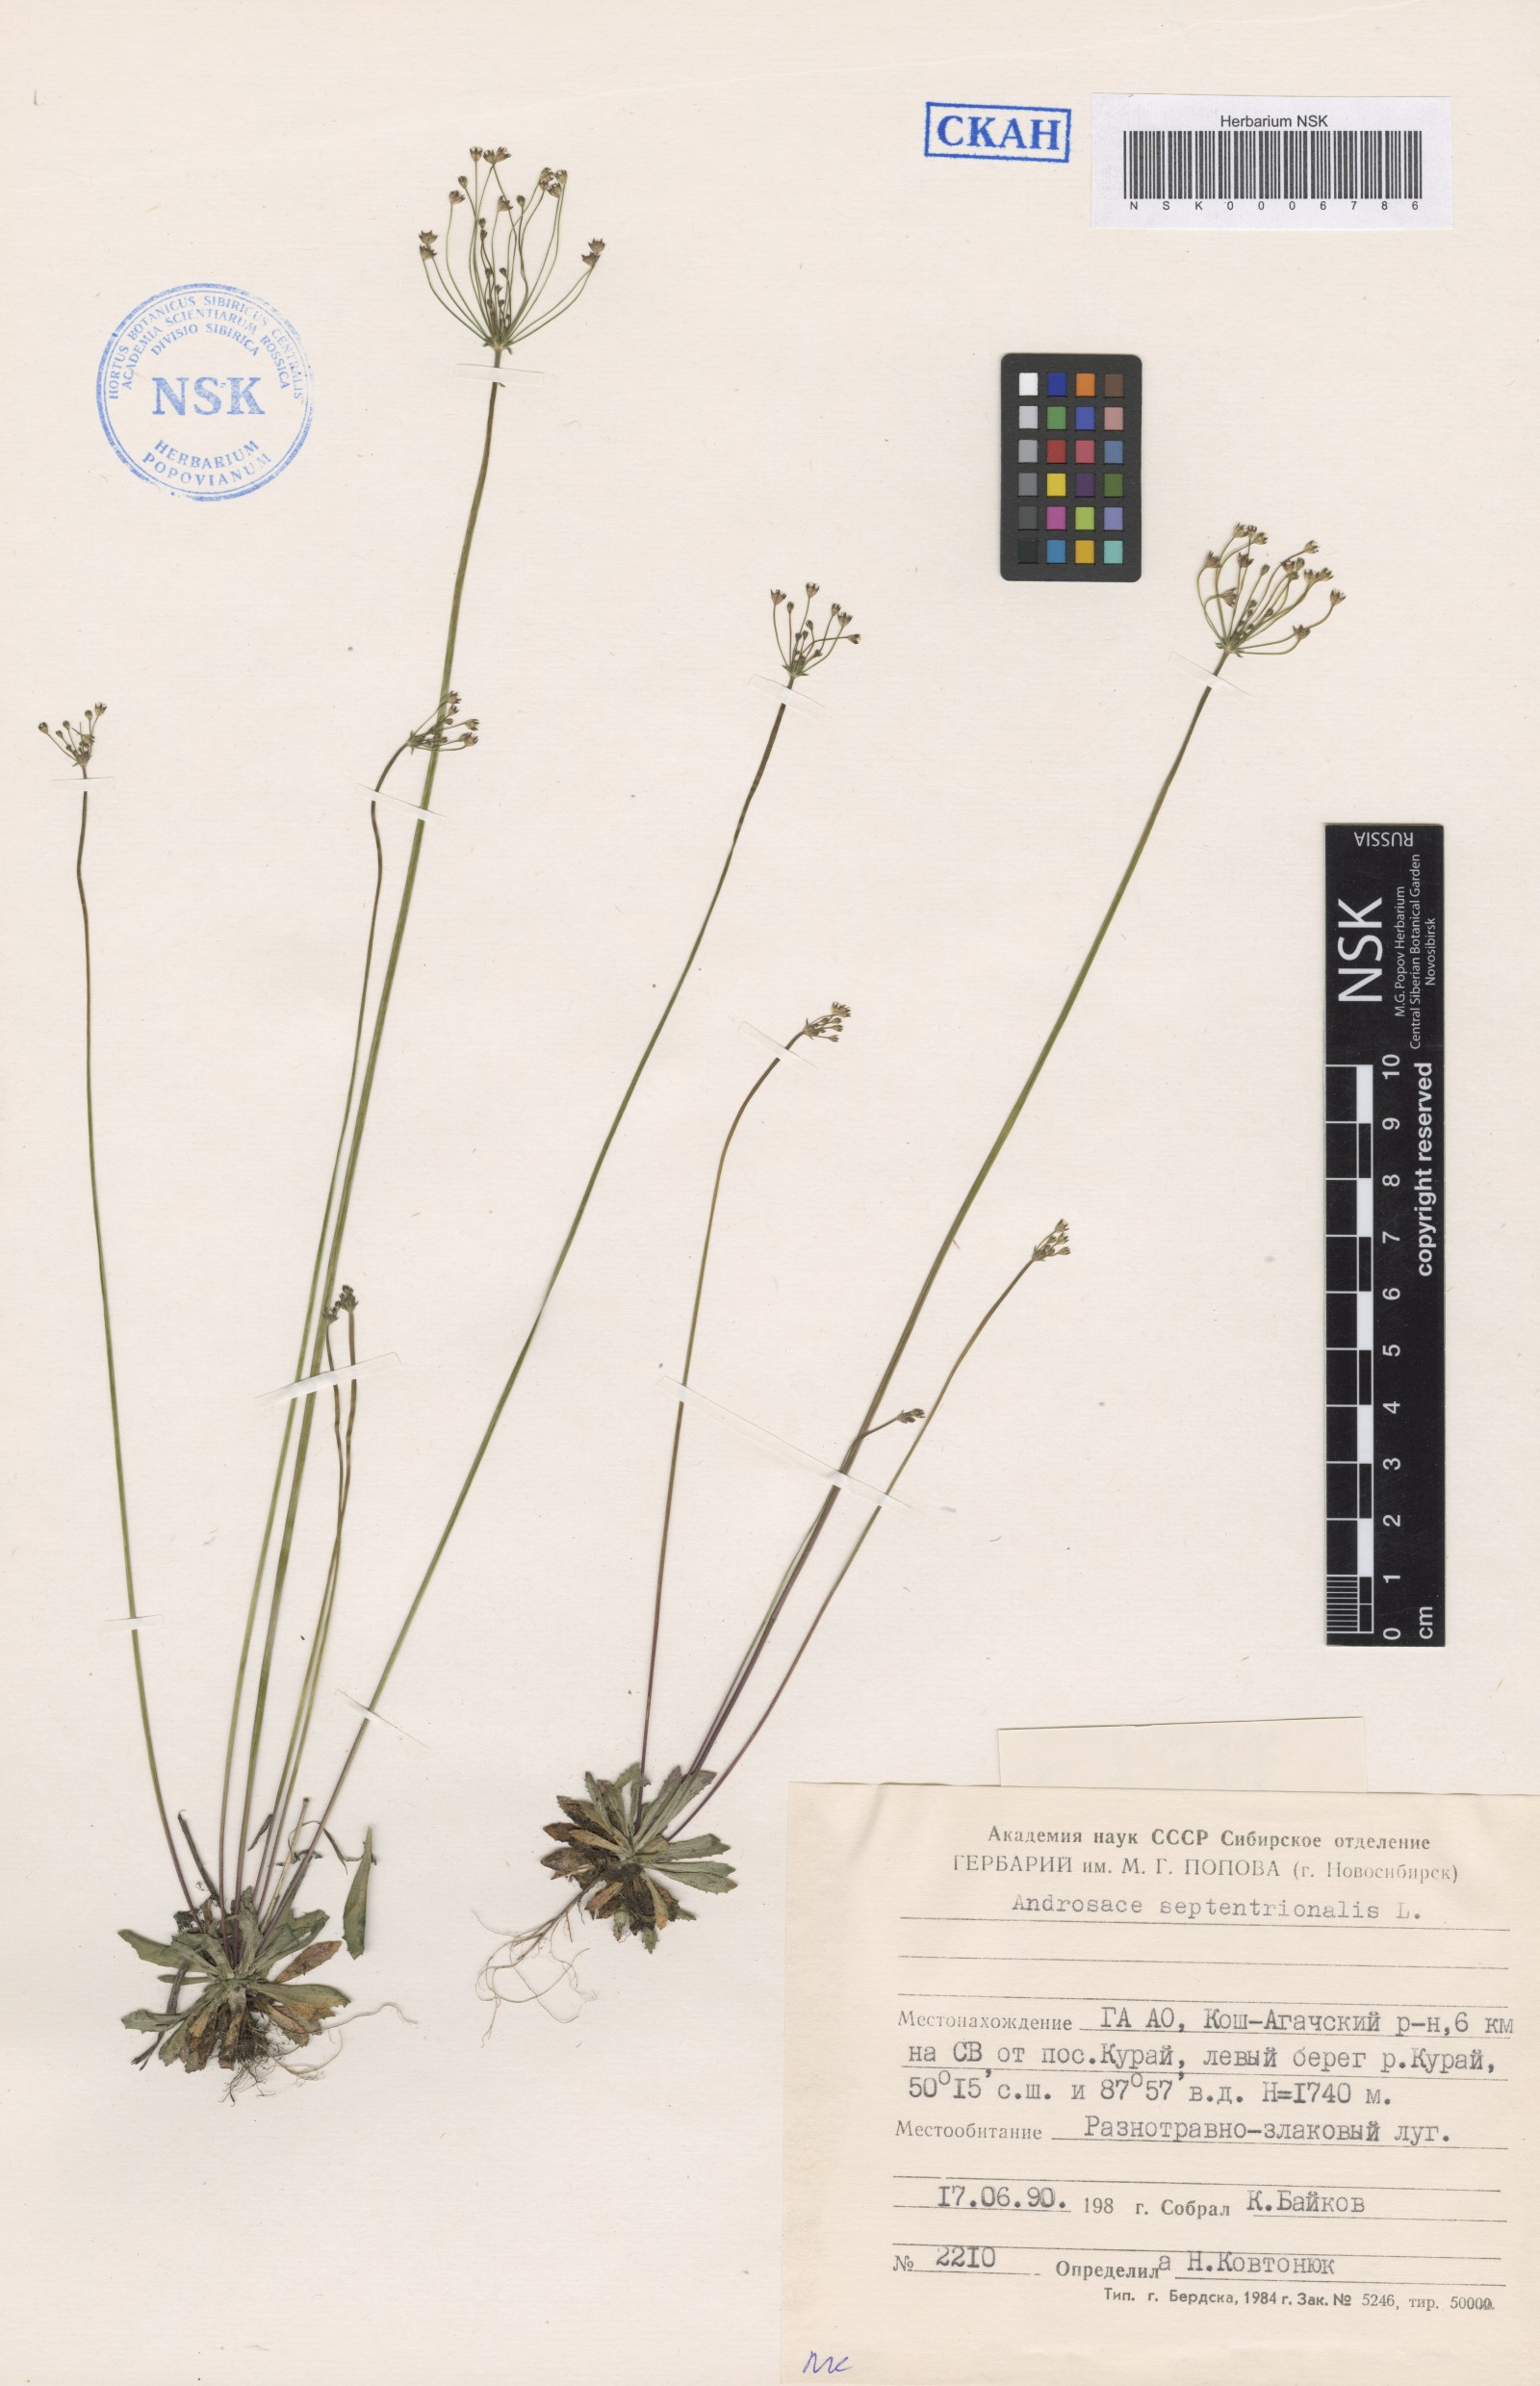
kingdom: Plantae
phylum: Tracheophyta
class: Magnoliopsida
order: Ericales
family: Primulaceae
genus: Androsace
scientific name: Androsace septentrionalis
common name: Hairy northern fairy-candelabra
